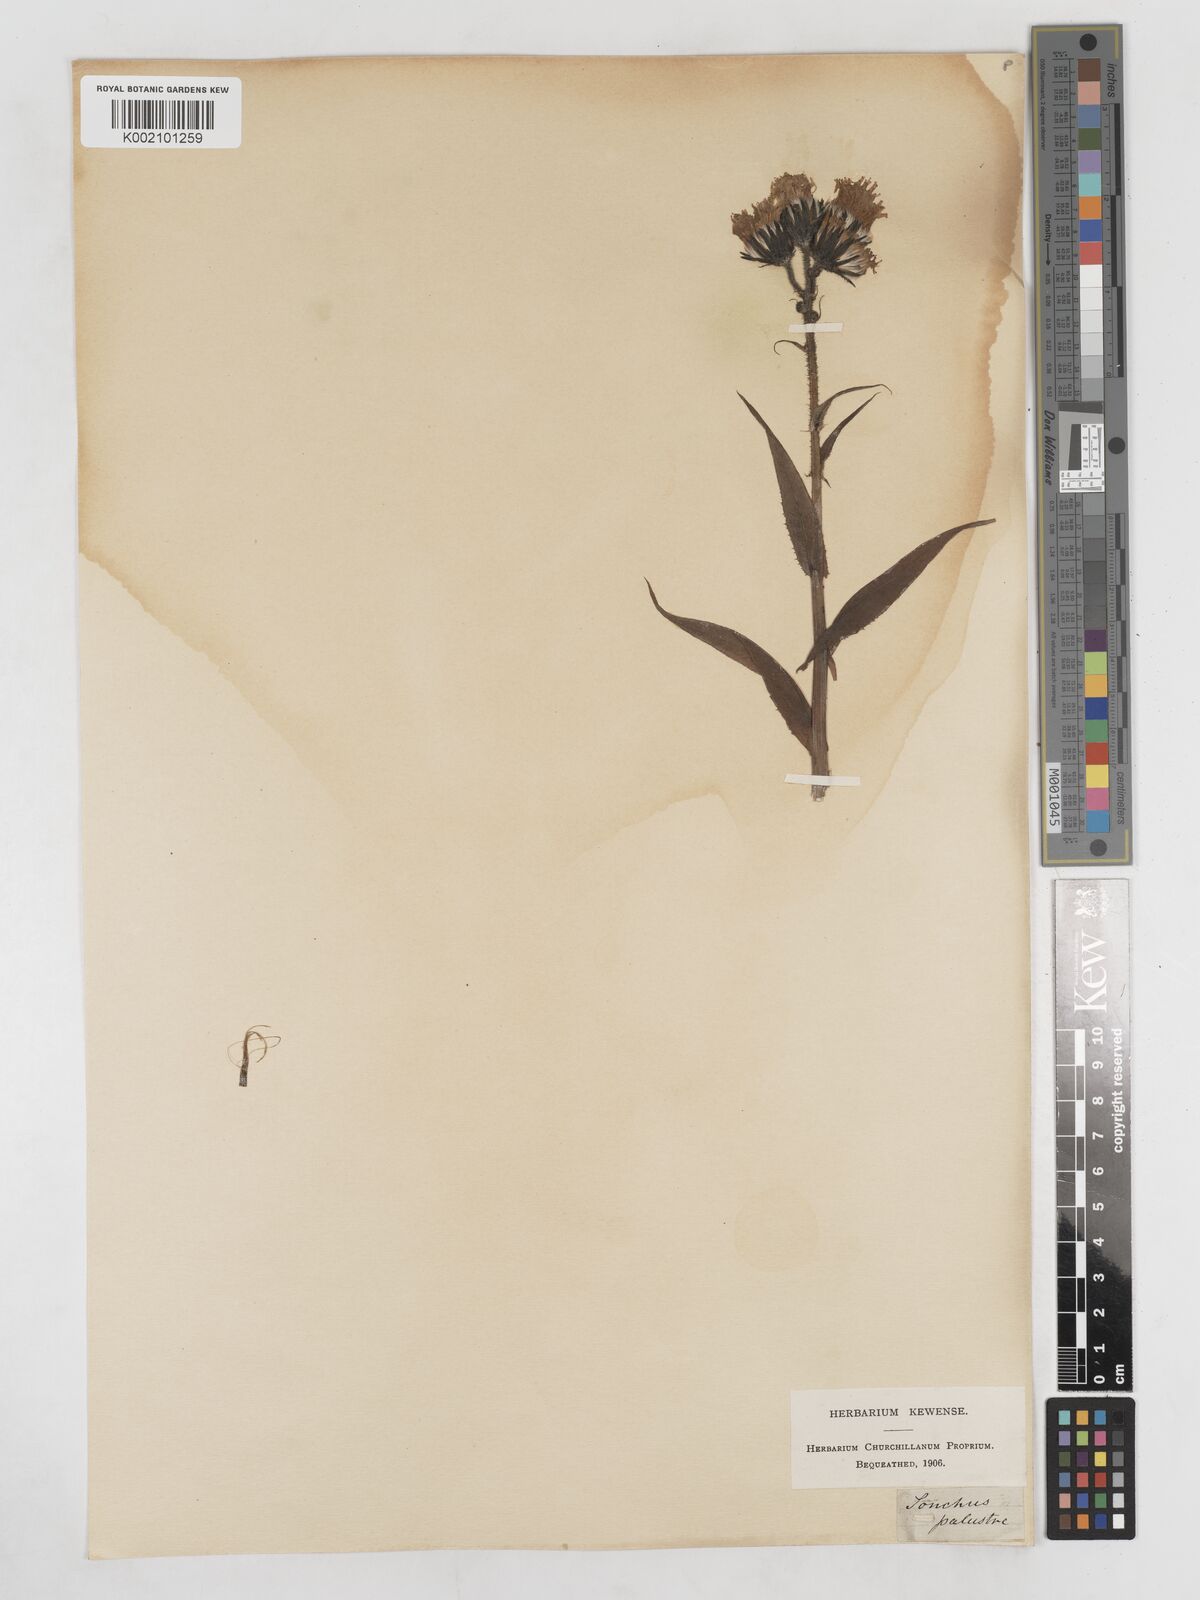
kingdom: Plantae
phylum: Tracheophyta
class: Magnoliopsida
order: Asterales
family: Asteraceae
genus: Sonchus
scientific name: Sonchus palustris
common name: Marsh sow-thistle
